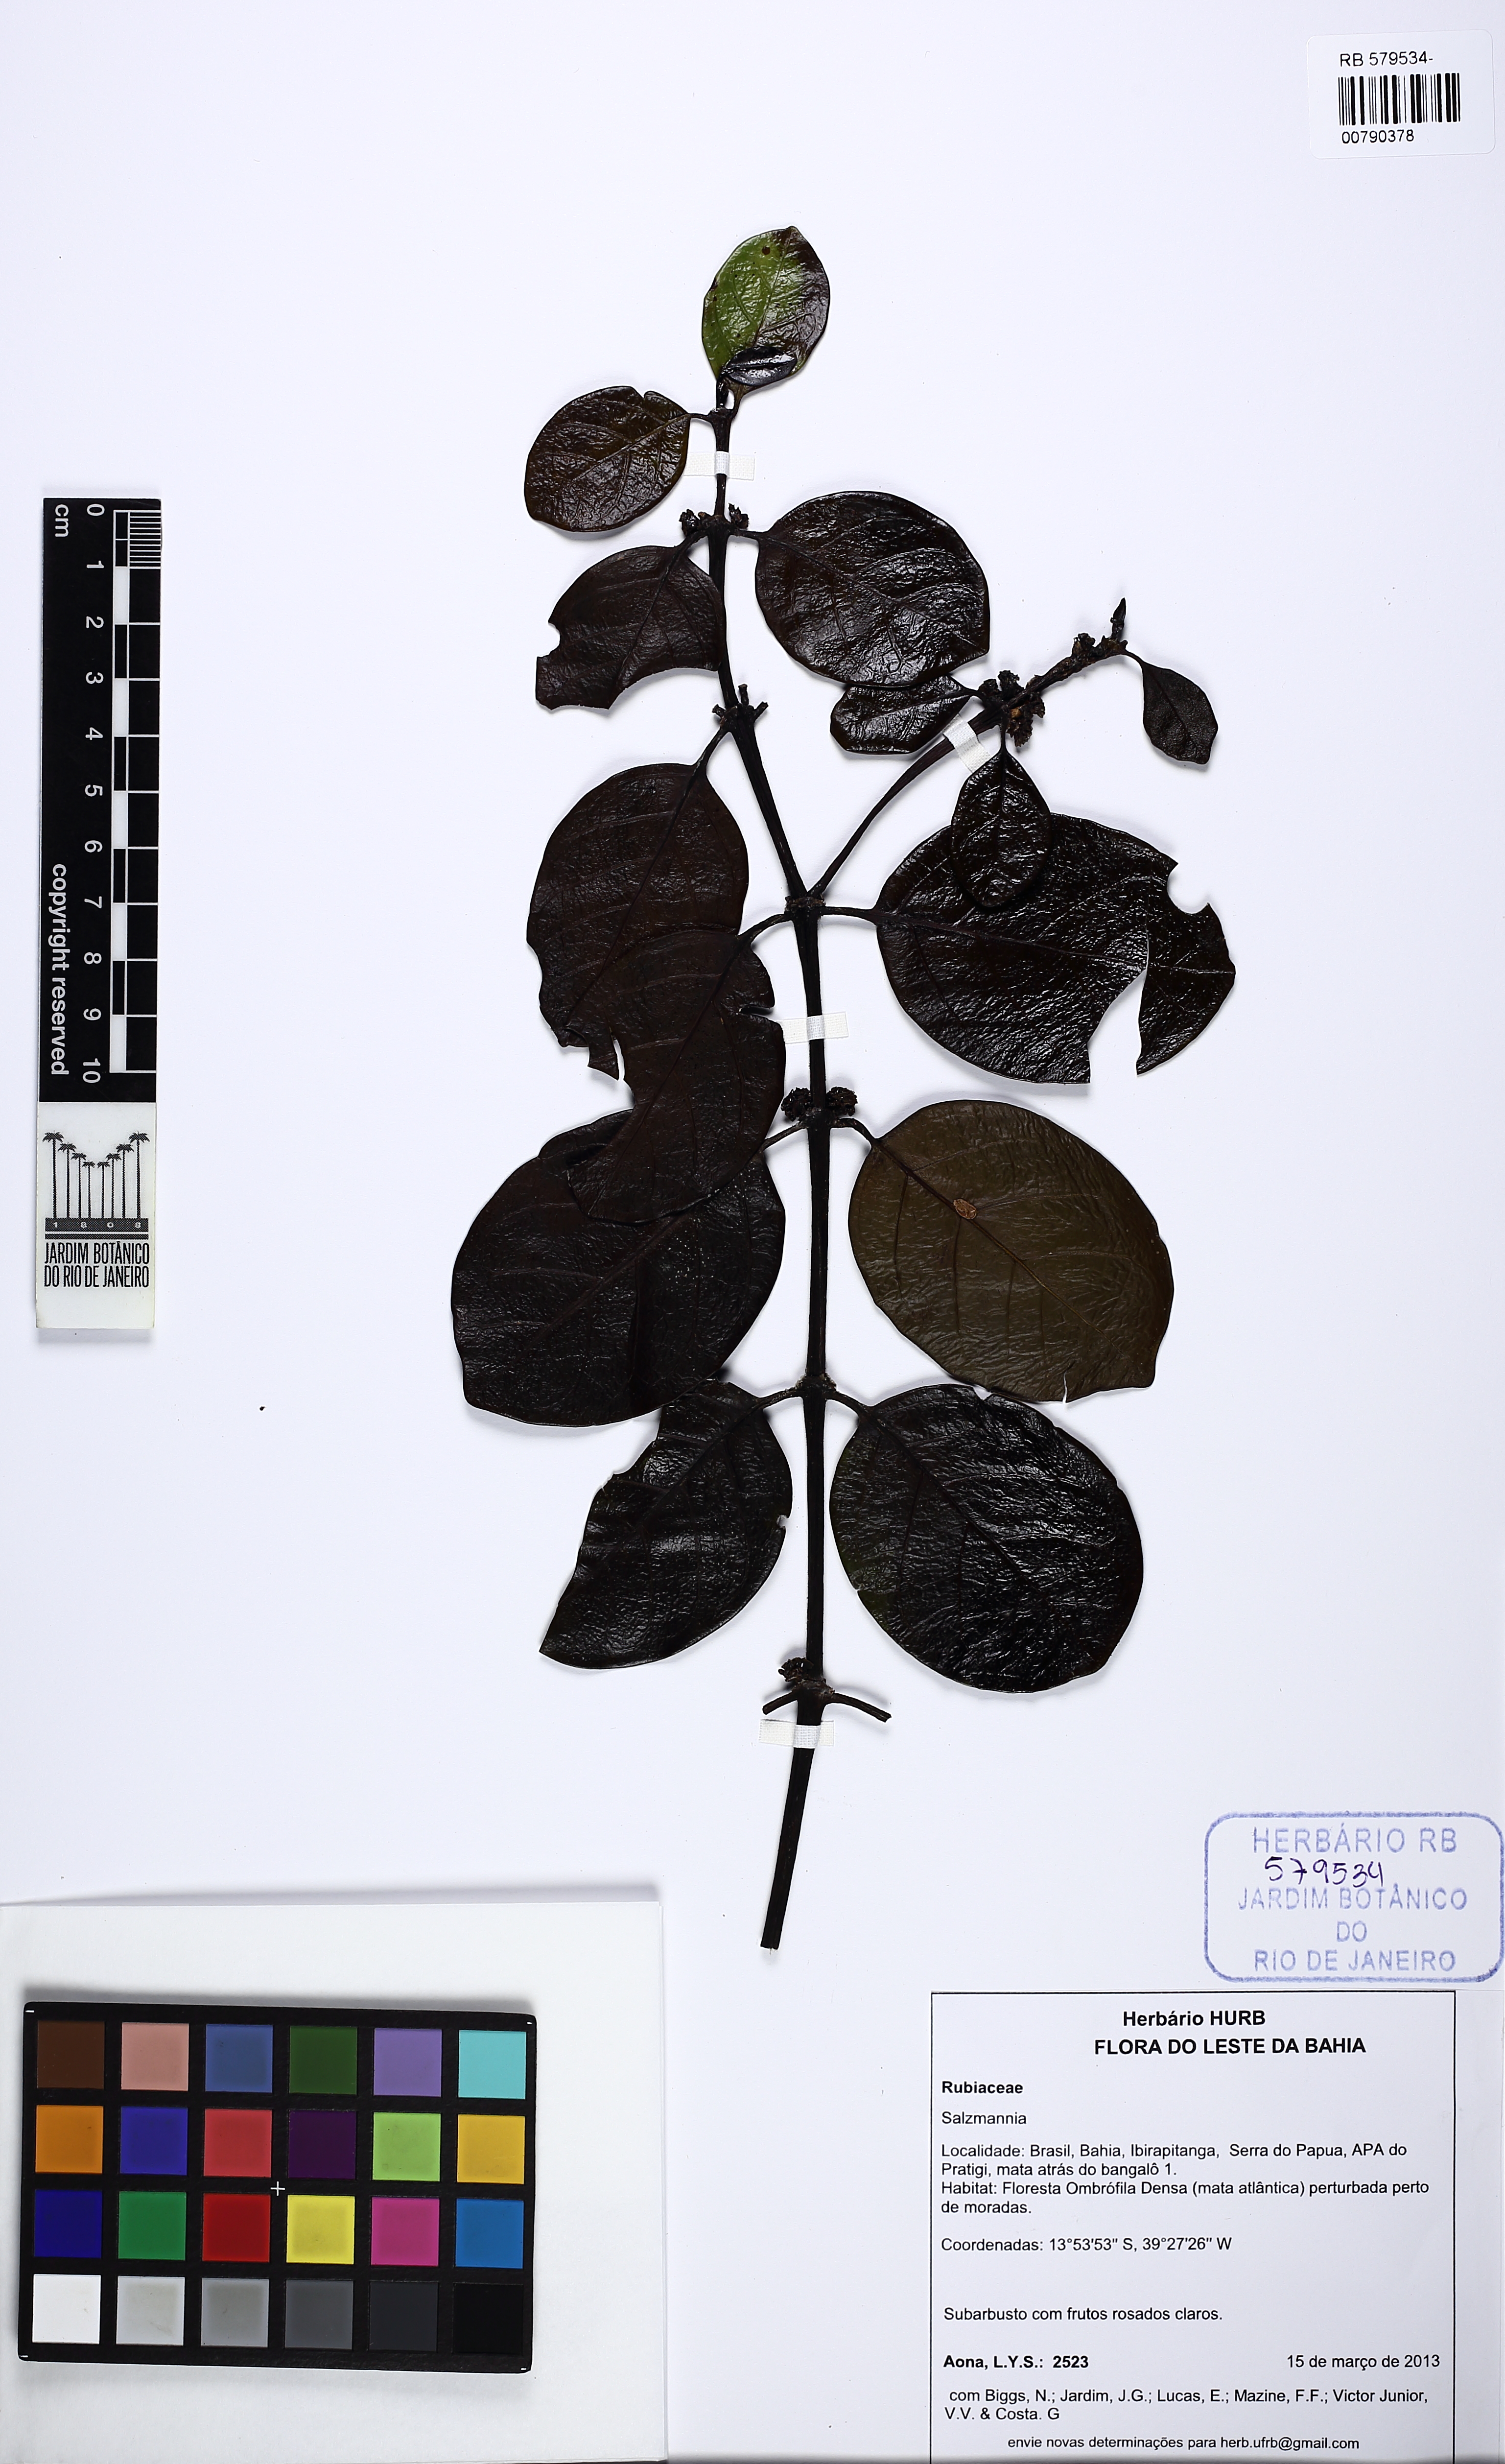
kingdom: Plantae
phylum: Tracheophyta
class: Magnoliopsida
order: Gentianales
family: Rubiaceae
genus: Salzmannia
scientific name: Salzmannia arborea
